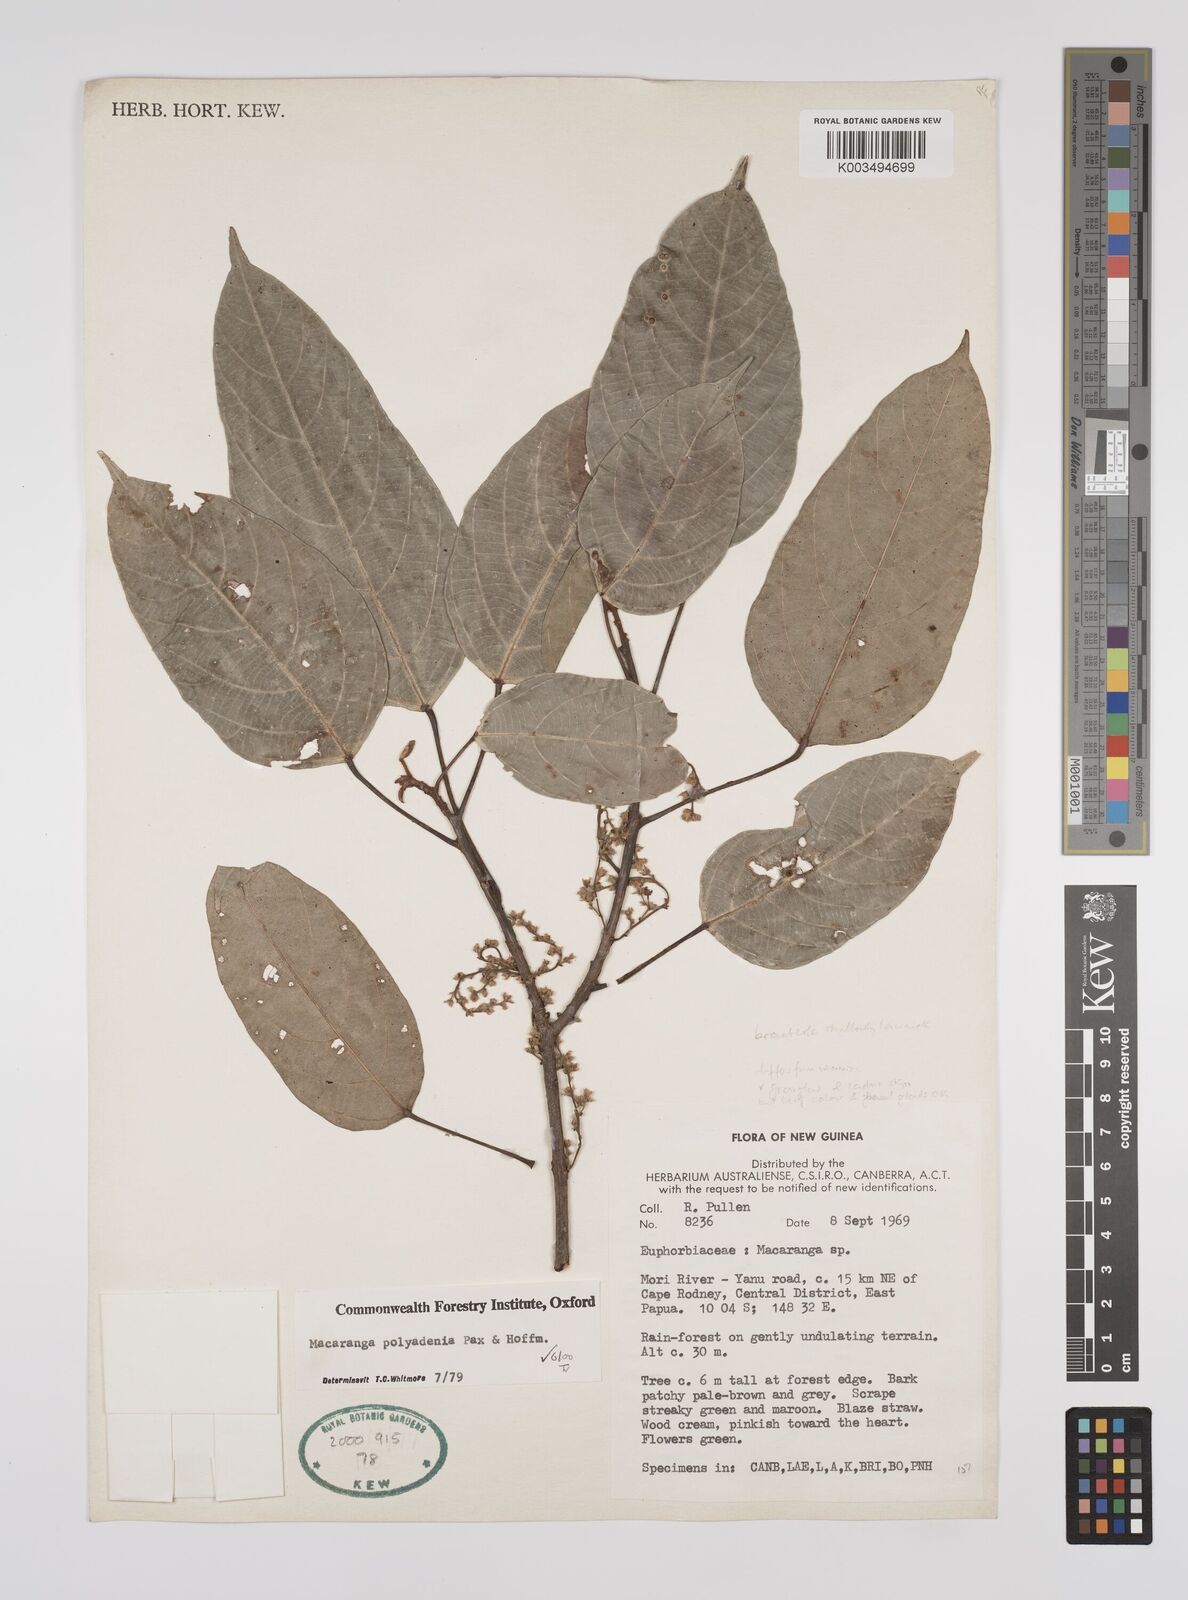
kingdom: Plantae
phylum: Tracheophyta
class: Magnoliopsida
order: Malpighiales
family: Euphorbiaceae
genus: Macaranga
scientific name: Macaranga polyadenia
